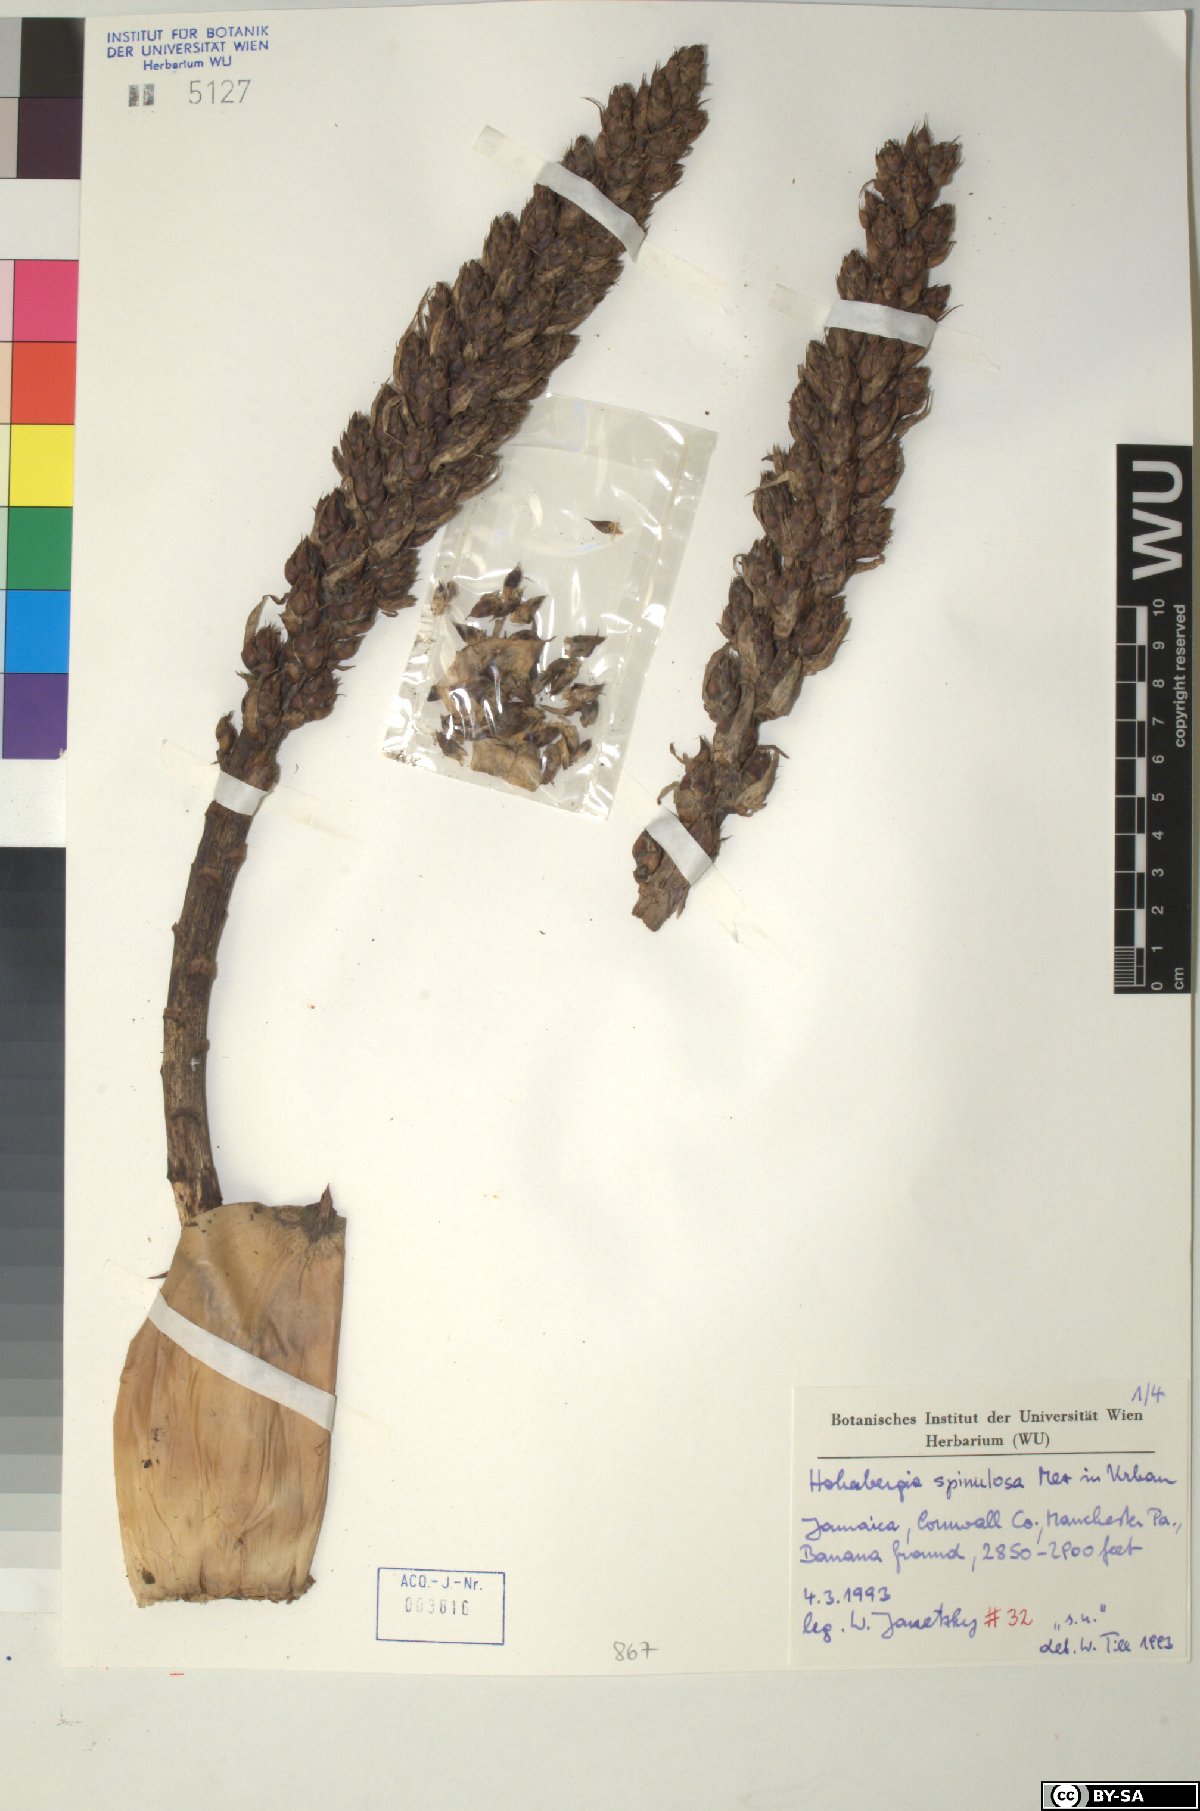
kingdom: Plantae
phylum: Tracheophyta
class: Liliopsida
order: Poales
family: Bromeliaceae
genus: Wittmackia
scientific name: Wittmackia spinulosa
